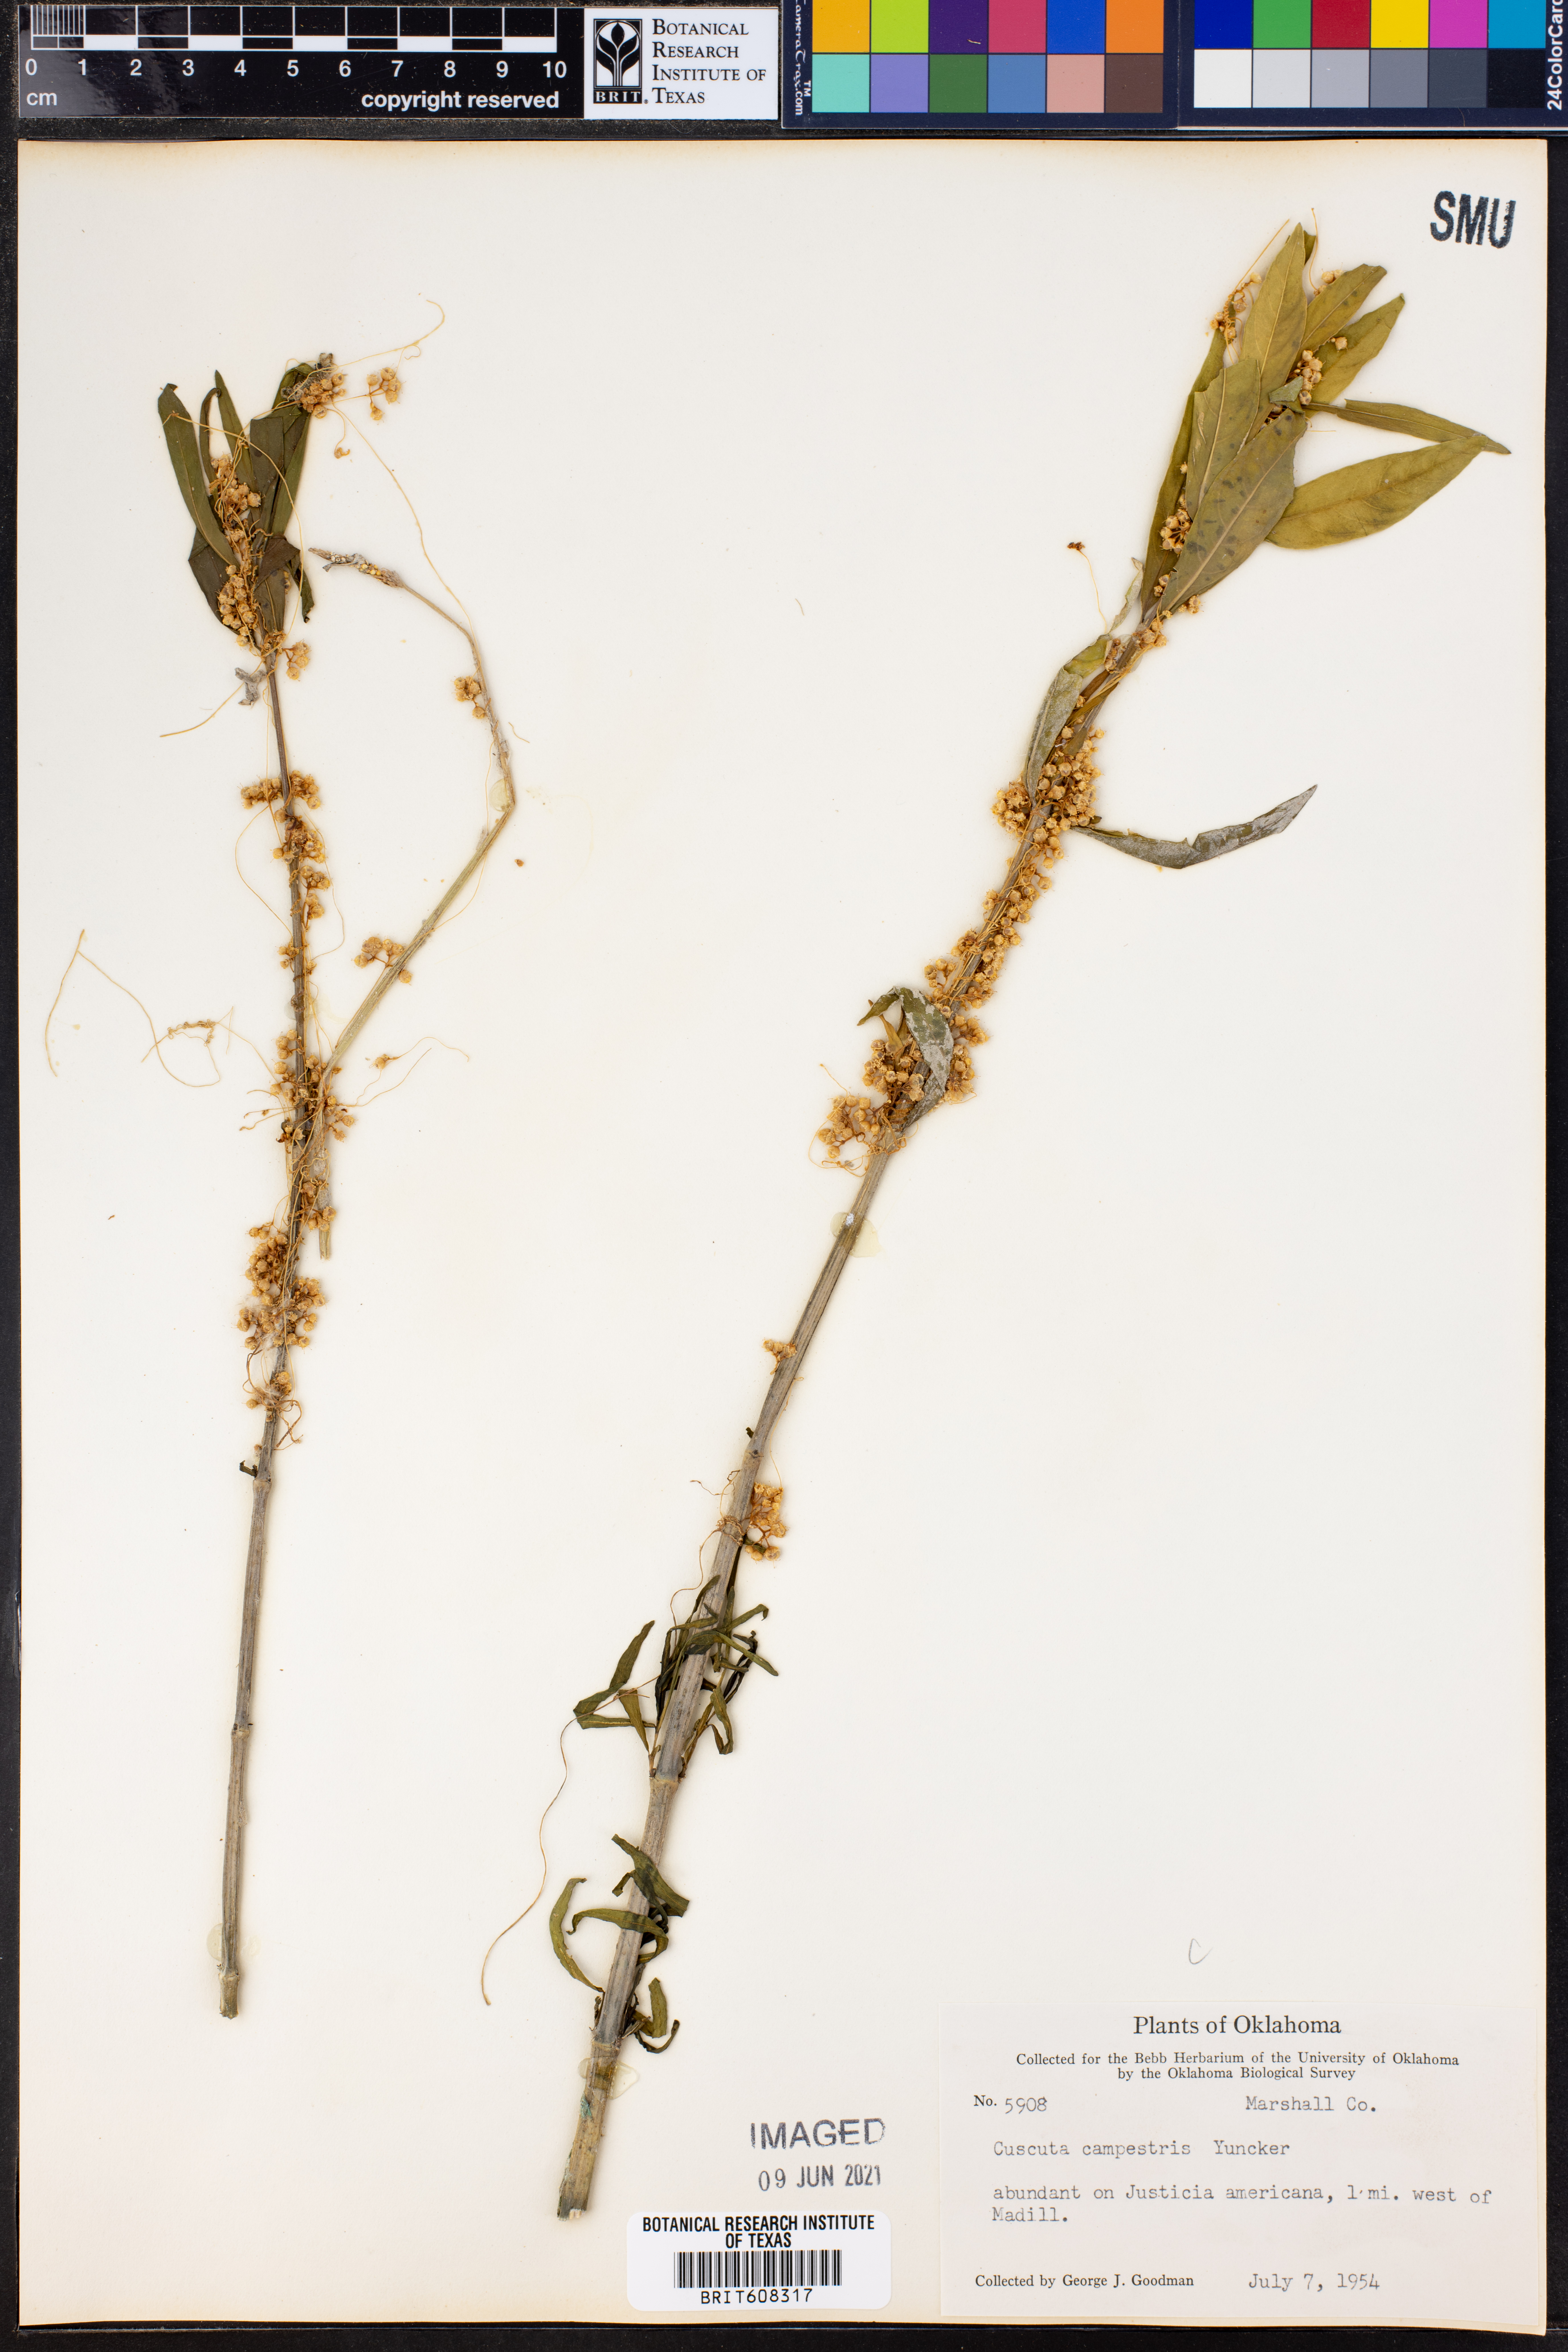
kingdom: Plantae
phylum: Tracheophyta
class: Magnoliopsida
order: Solanales
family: Convolvulaceae
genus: Cuscuta
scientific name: Cuscuta campestris
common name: Yellow dodder
